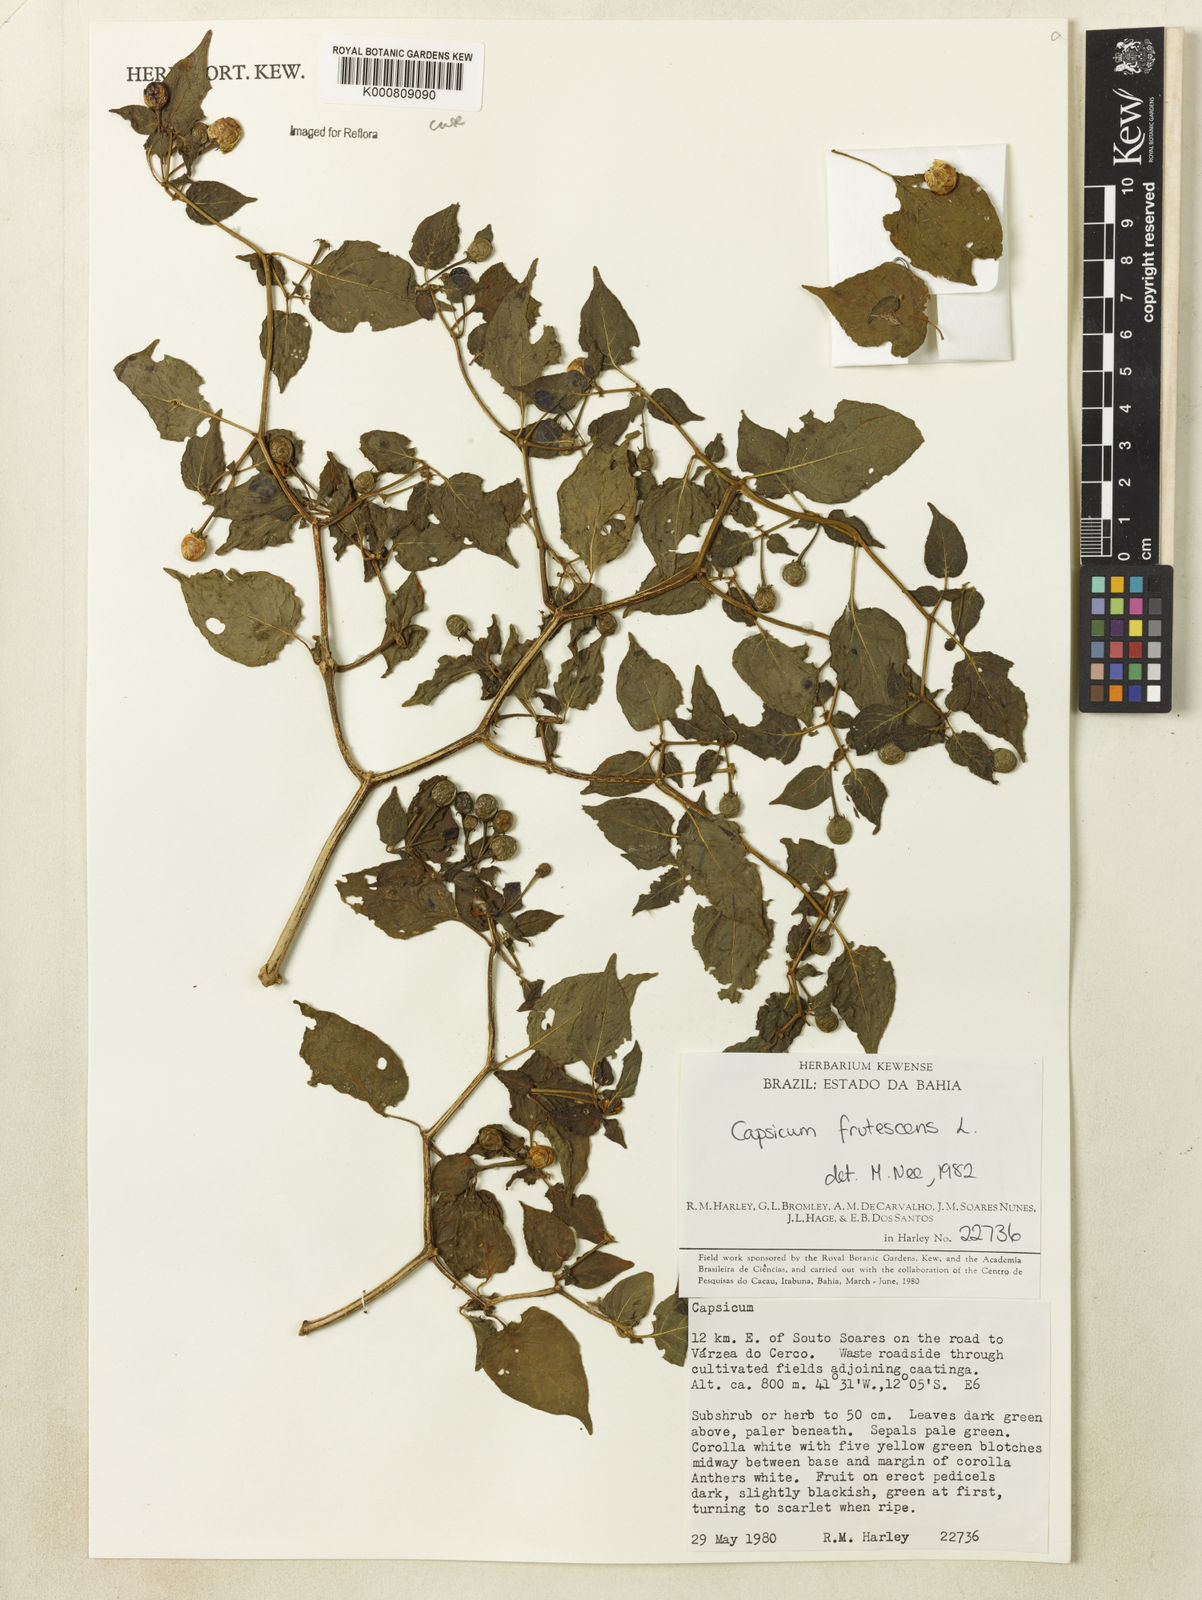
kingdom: Plantae
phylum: Tracheophyta
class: Magnoliopsida
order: Solanales
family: Solanaceae
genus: Capsicum
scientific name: Capsicum frutescens
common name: Bird pepper
